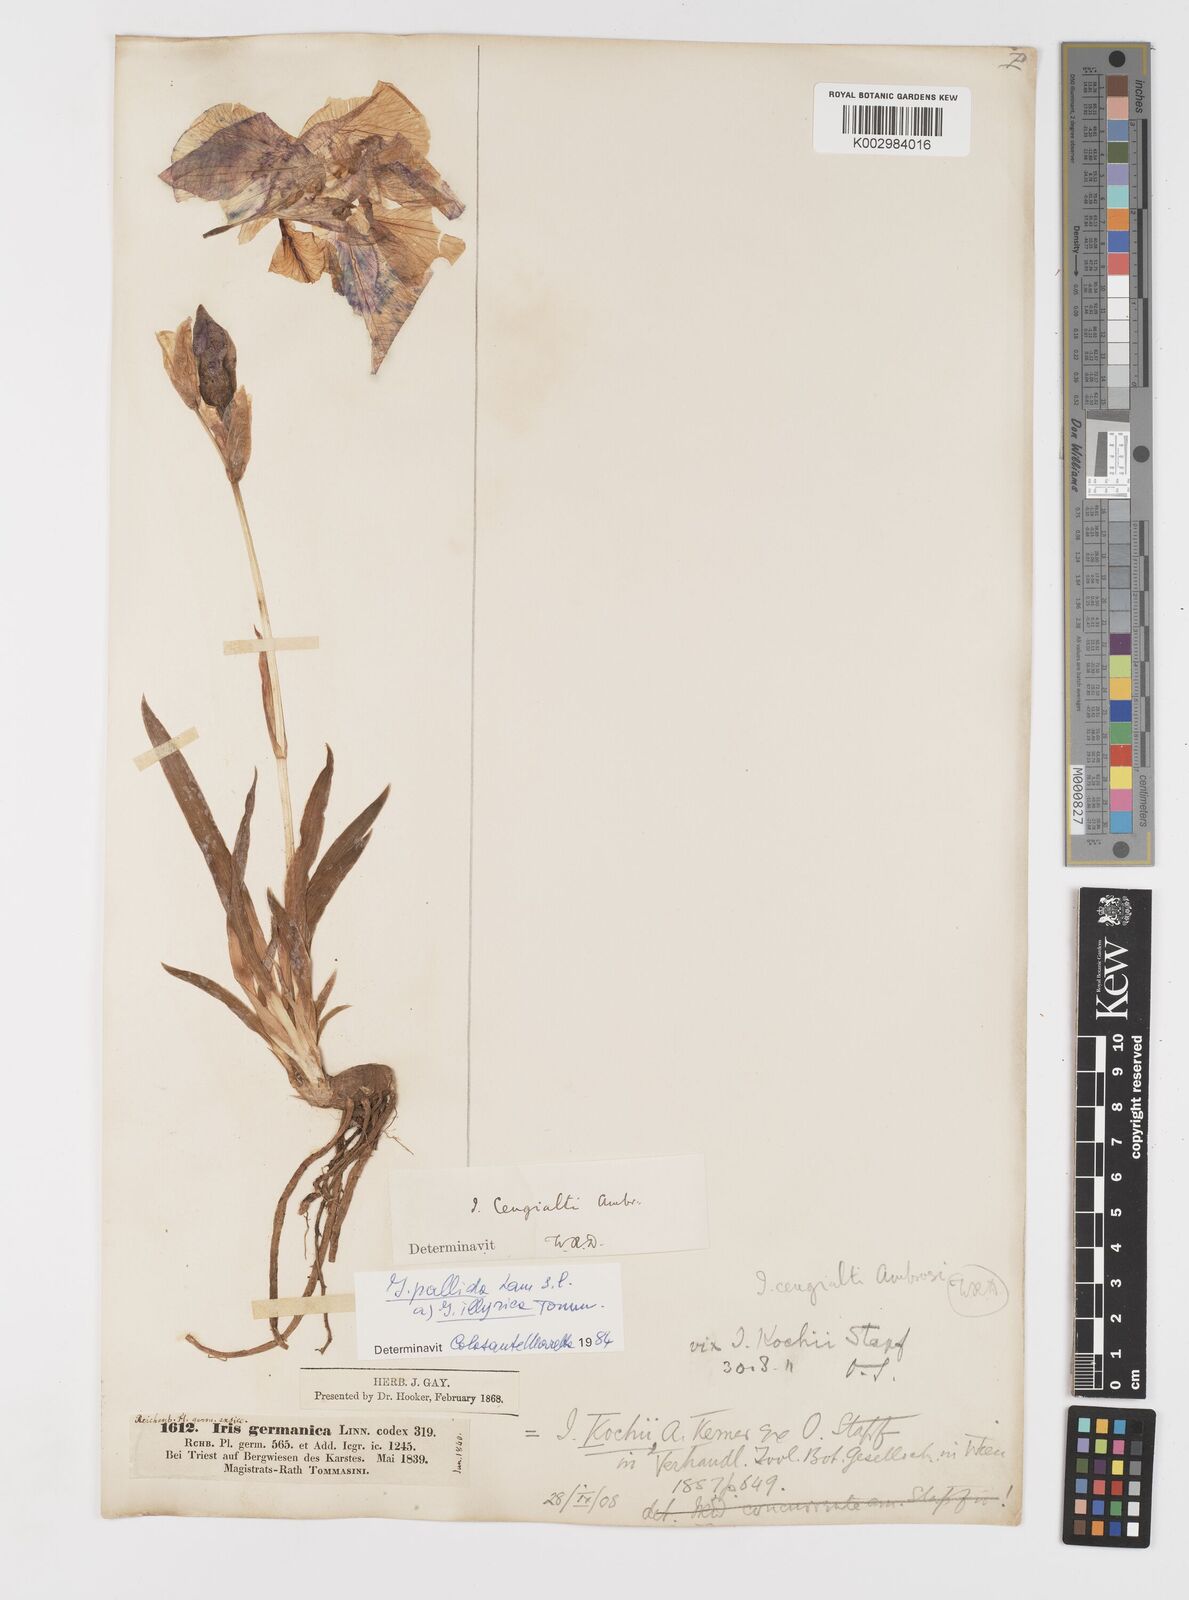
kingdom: Plantae
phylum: Tracheophyta
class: Liliopsida
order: Asparagales
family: Iridaceae
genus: Iris
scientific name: Iris pallida
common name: Sweet iris
